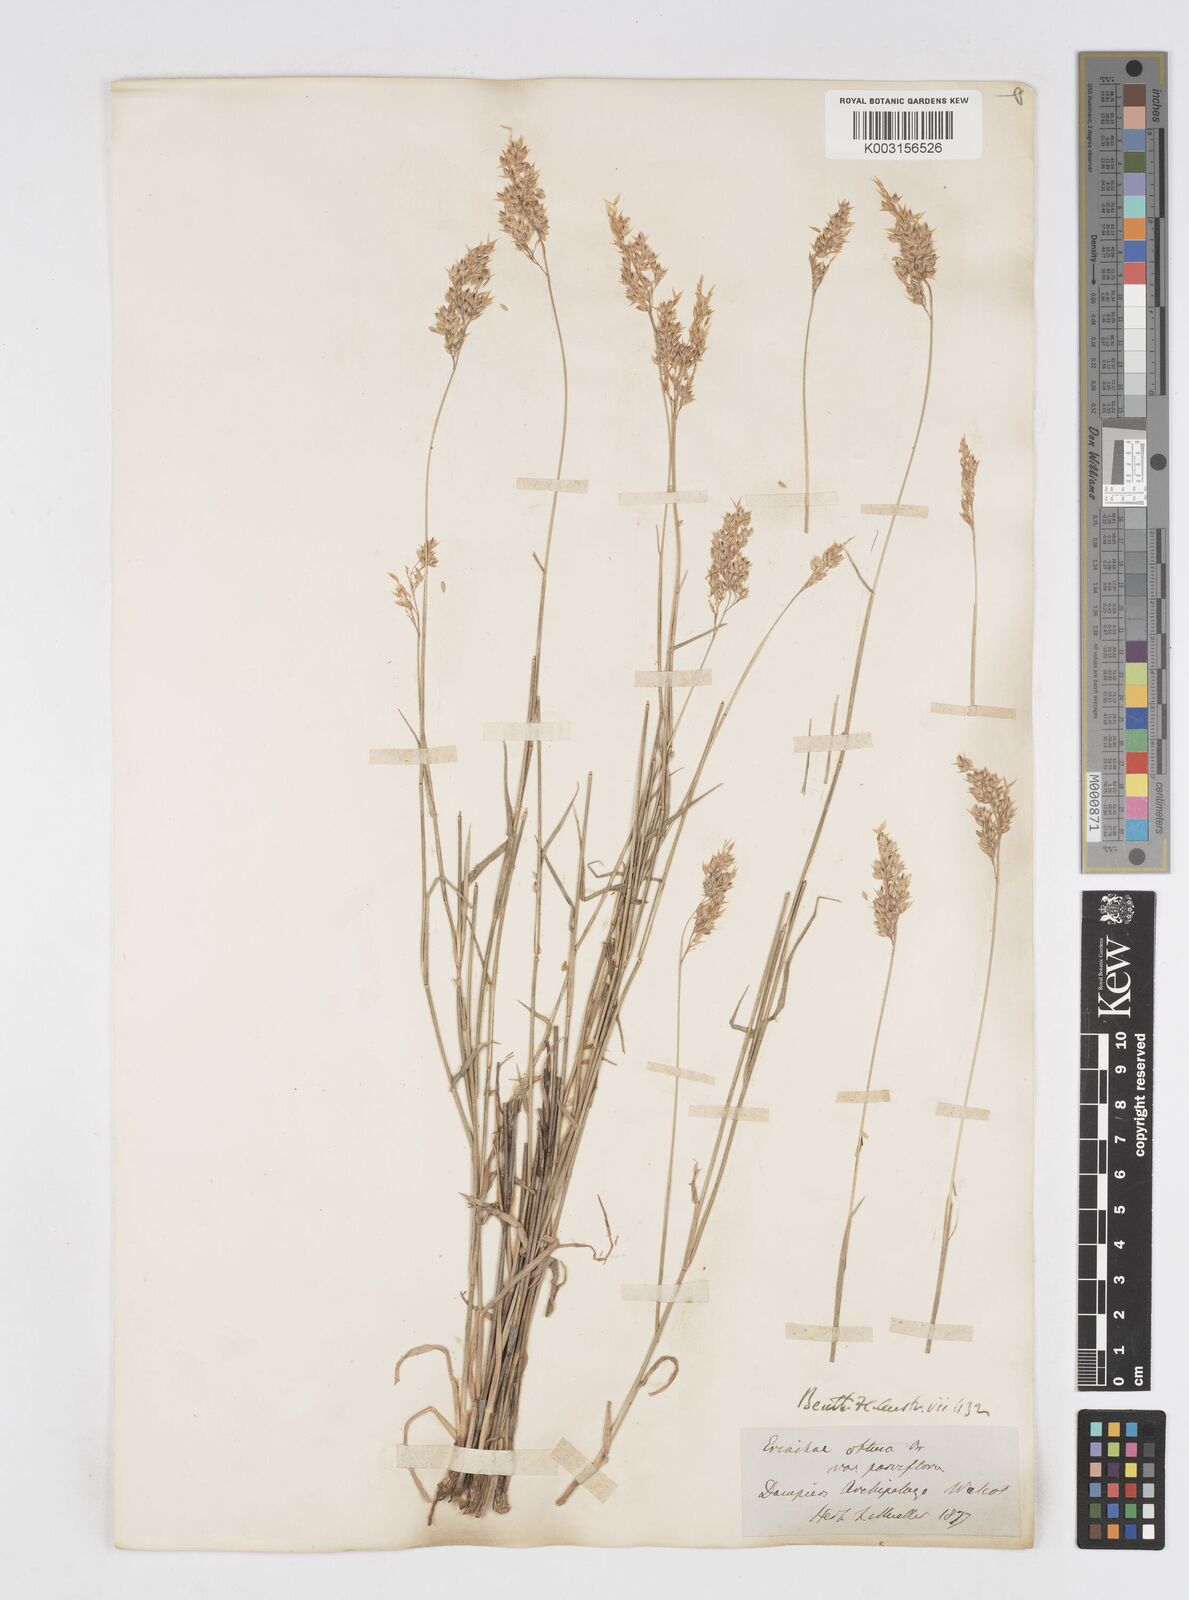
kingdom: Plantae
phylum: Tracheophyta
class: Liliopsida
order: Poales
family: Poaceae
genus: Eriachne
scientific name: Eriachne obtusa
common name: Northern wanderrie grass
